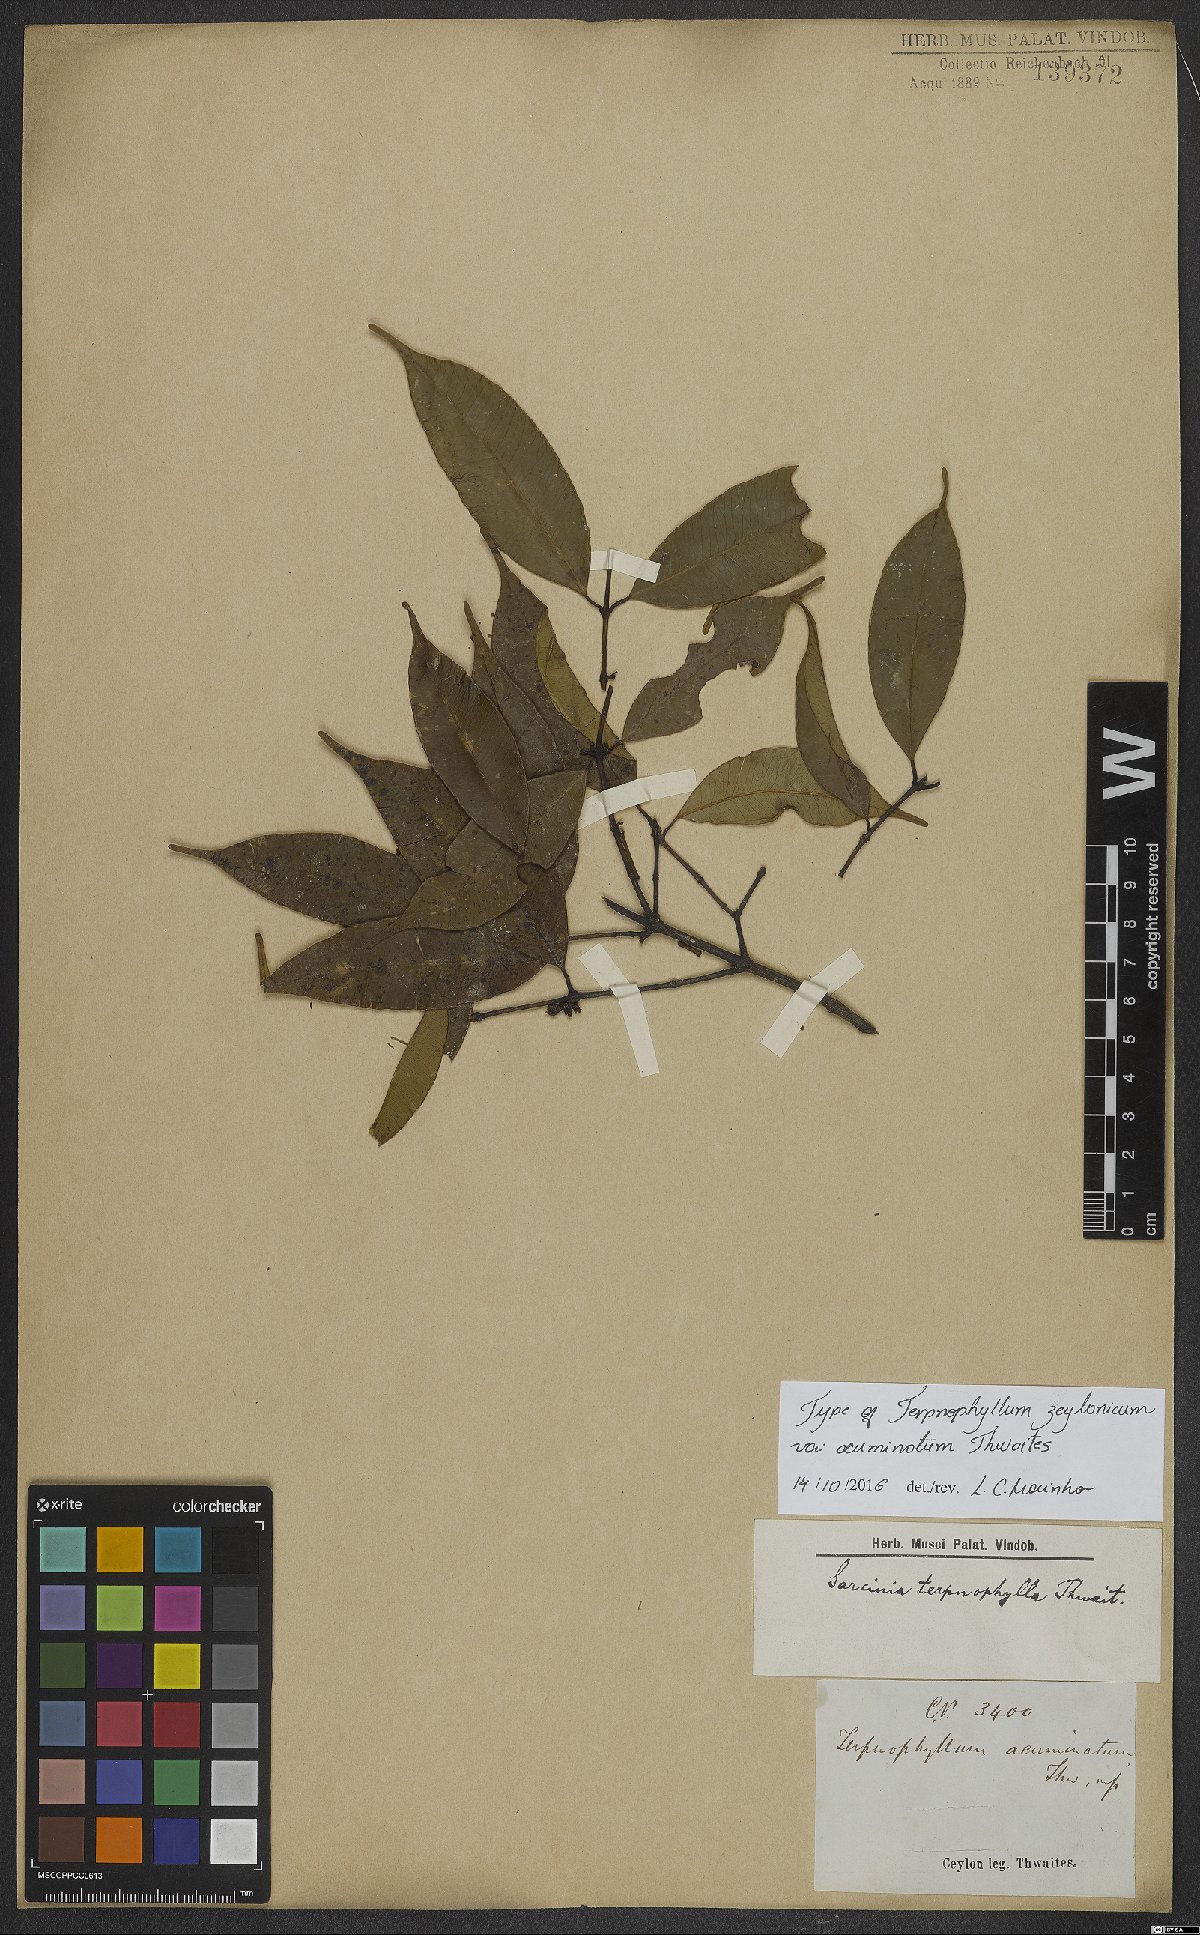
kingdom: Plantae
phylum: Tracheophyta
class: Magnoliopsida
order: Malpighiales
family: Clusiaceae
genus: Garcinia
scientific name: Garcinia terpnophylla
